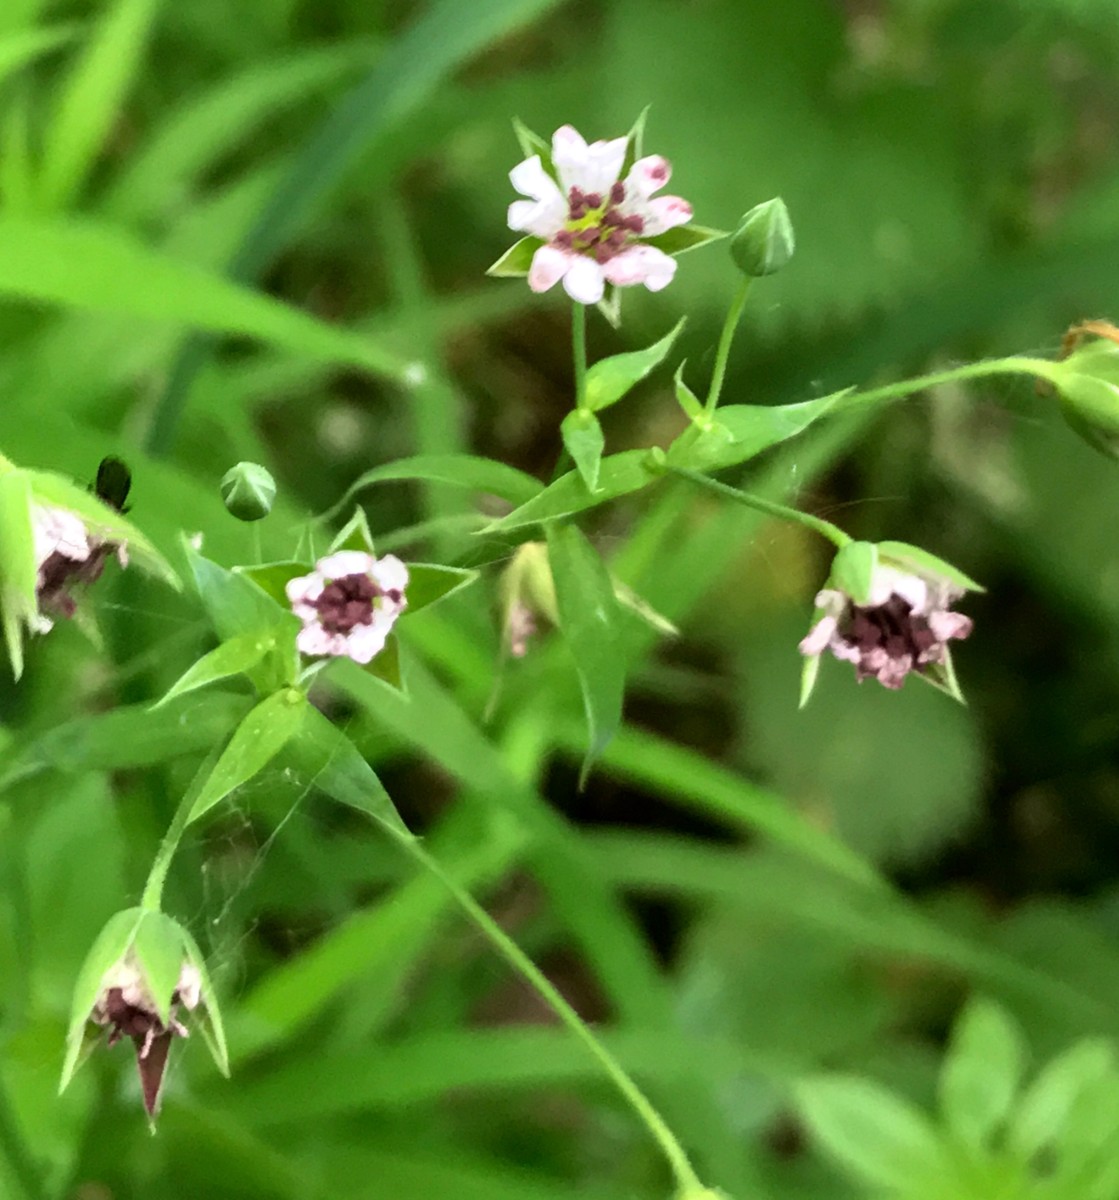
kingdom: Fungi
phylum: Basidiomycota
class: Microbotryomycetes
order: Microbotryales
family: Microbotryaceae
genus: Microbotryum
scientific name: Microbotryum stellariae
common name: fladstjerne-støvbladrust
